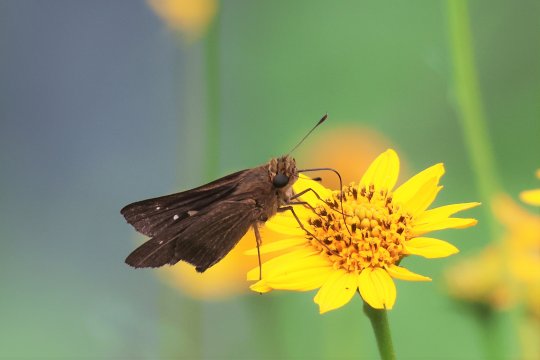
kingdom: Animalia
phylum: Arthropoda
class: Insecta
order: Lepidoptera
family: Hesperiidae
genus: Panoquina
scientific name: Panoquina ocola
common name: Ocola Skipper
